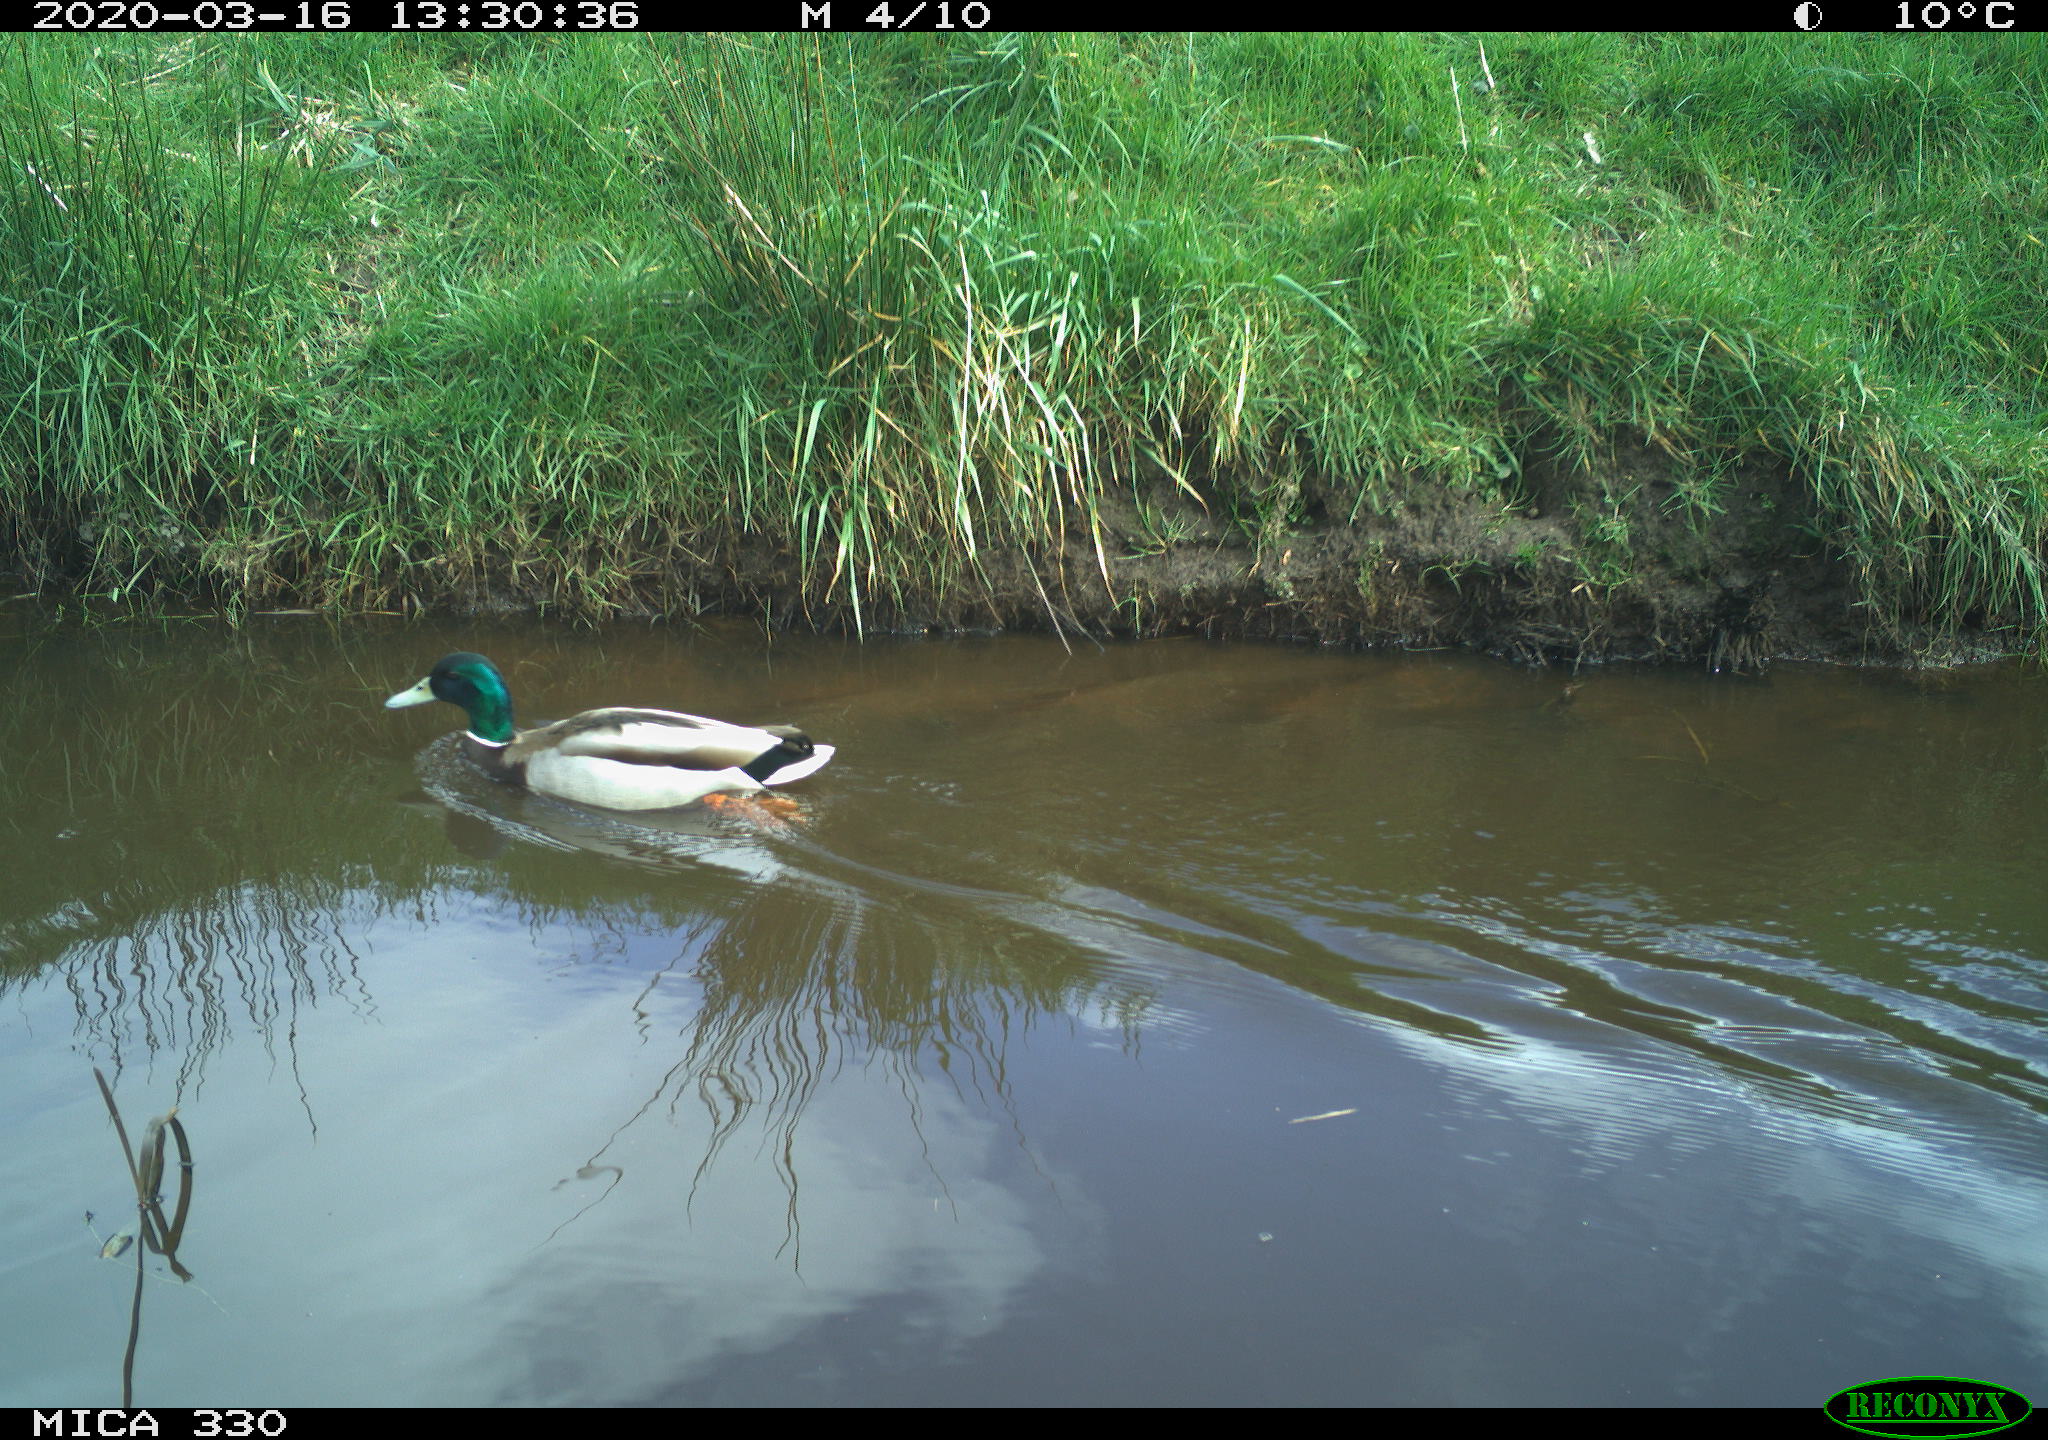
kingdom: Animalia
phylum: Chordata
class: Aves
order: Anseriformes
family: Anatidae
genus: Mareca
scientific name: Mareca strepera
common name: Gadwall
